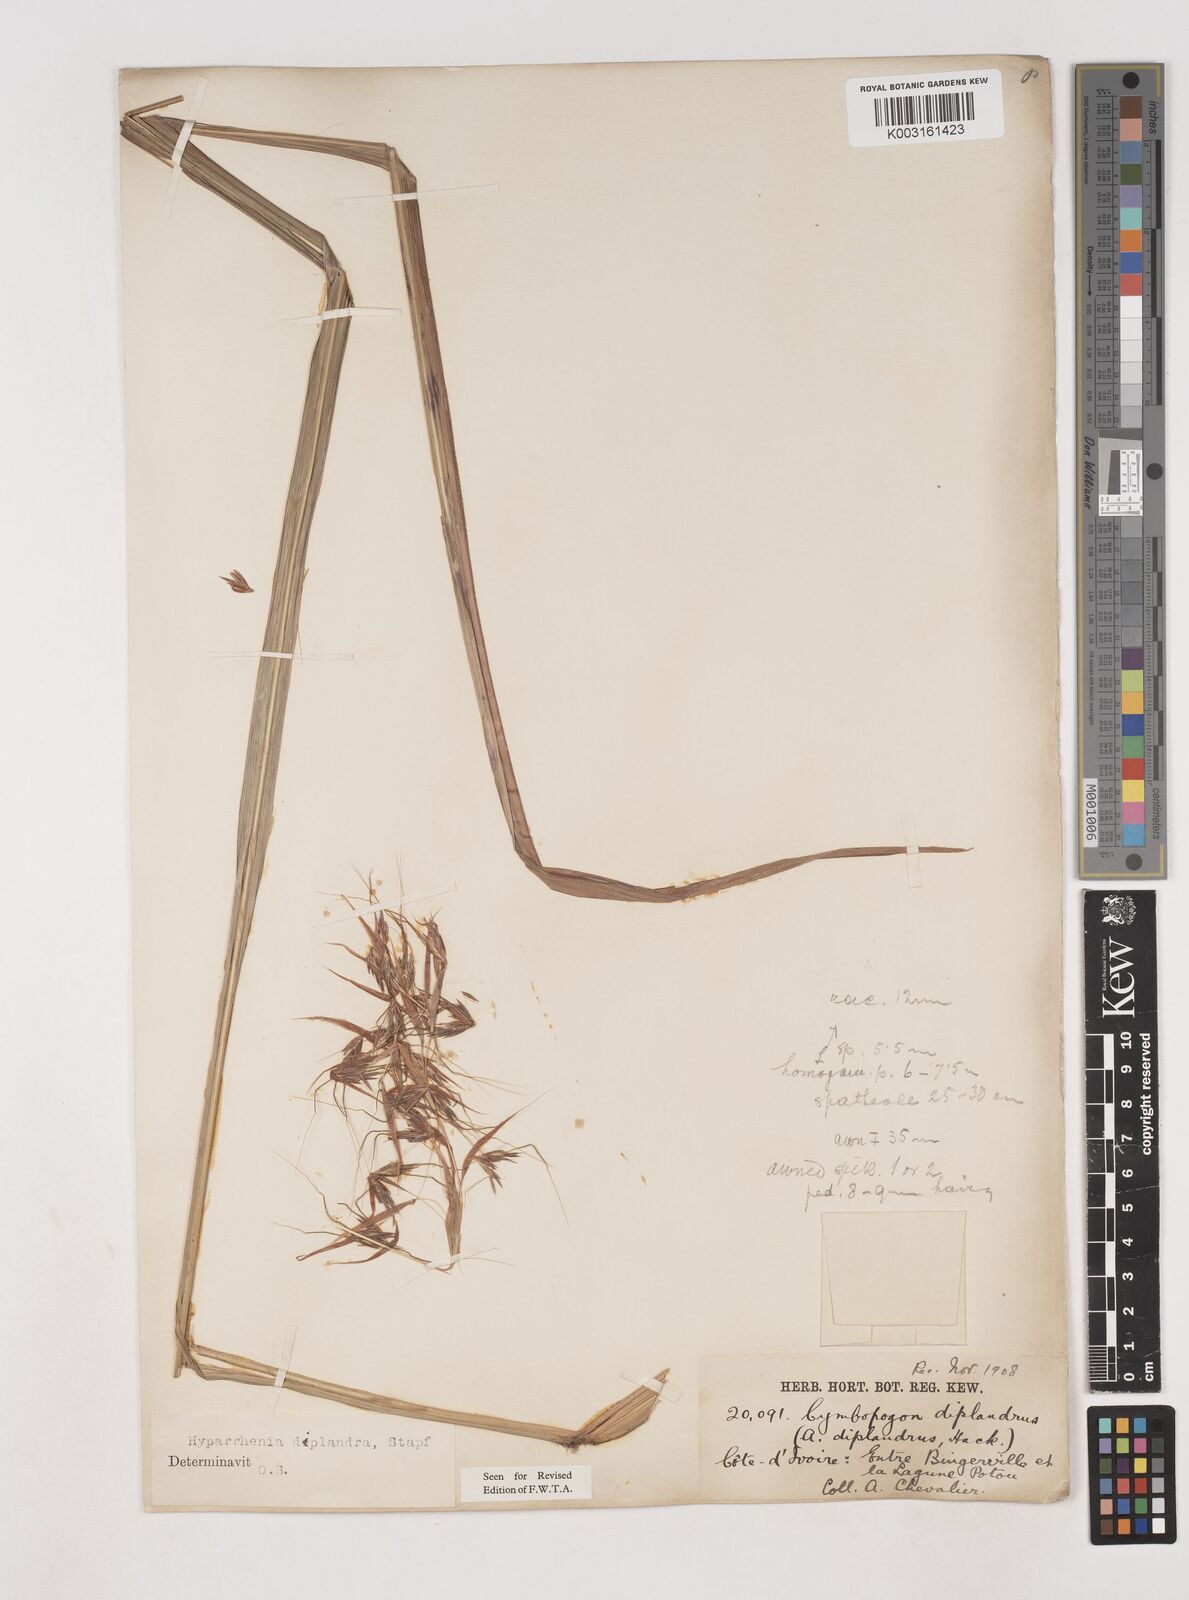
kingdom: Plantae
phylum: Tracheophyta
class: Liliopsida
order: Poales
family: Poaceae
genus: Hyparrhenia
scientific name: Hyparrhenia diplandra
